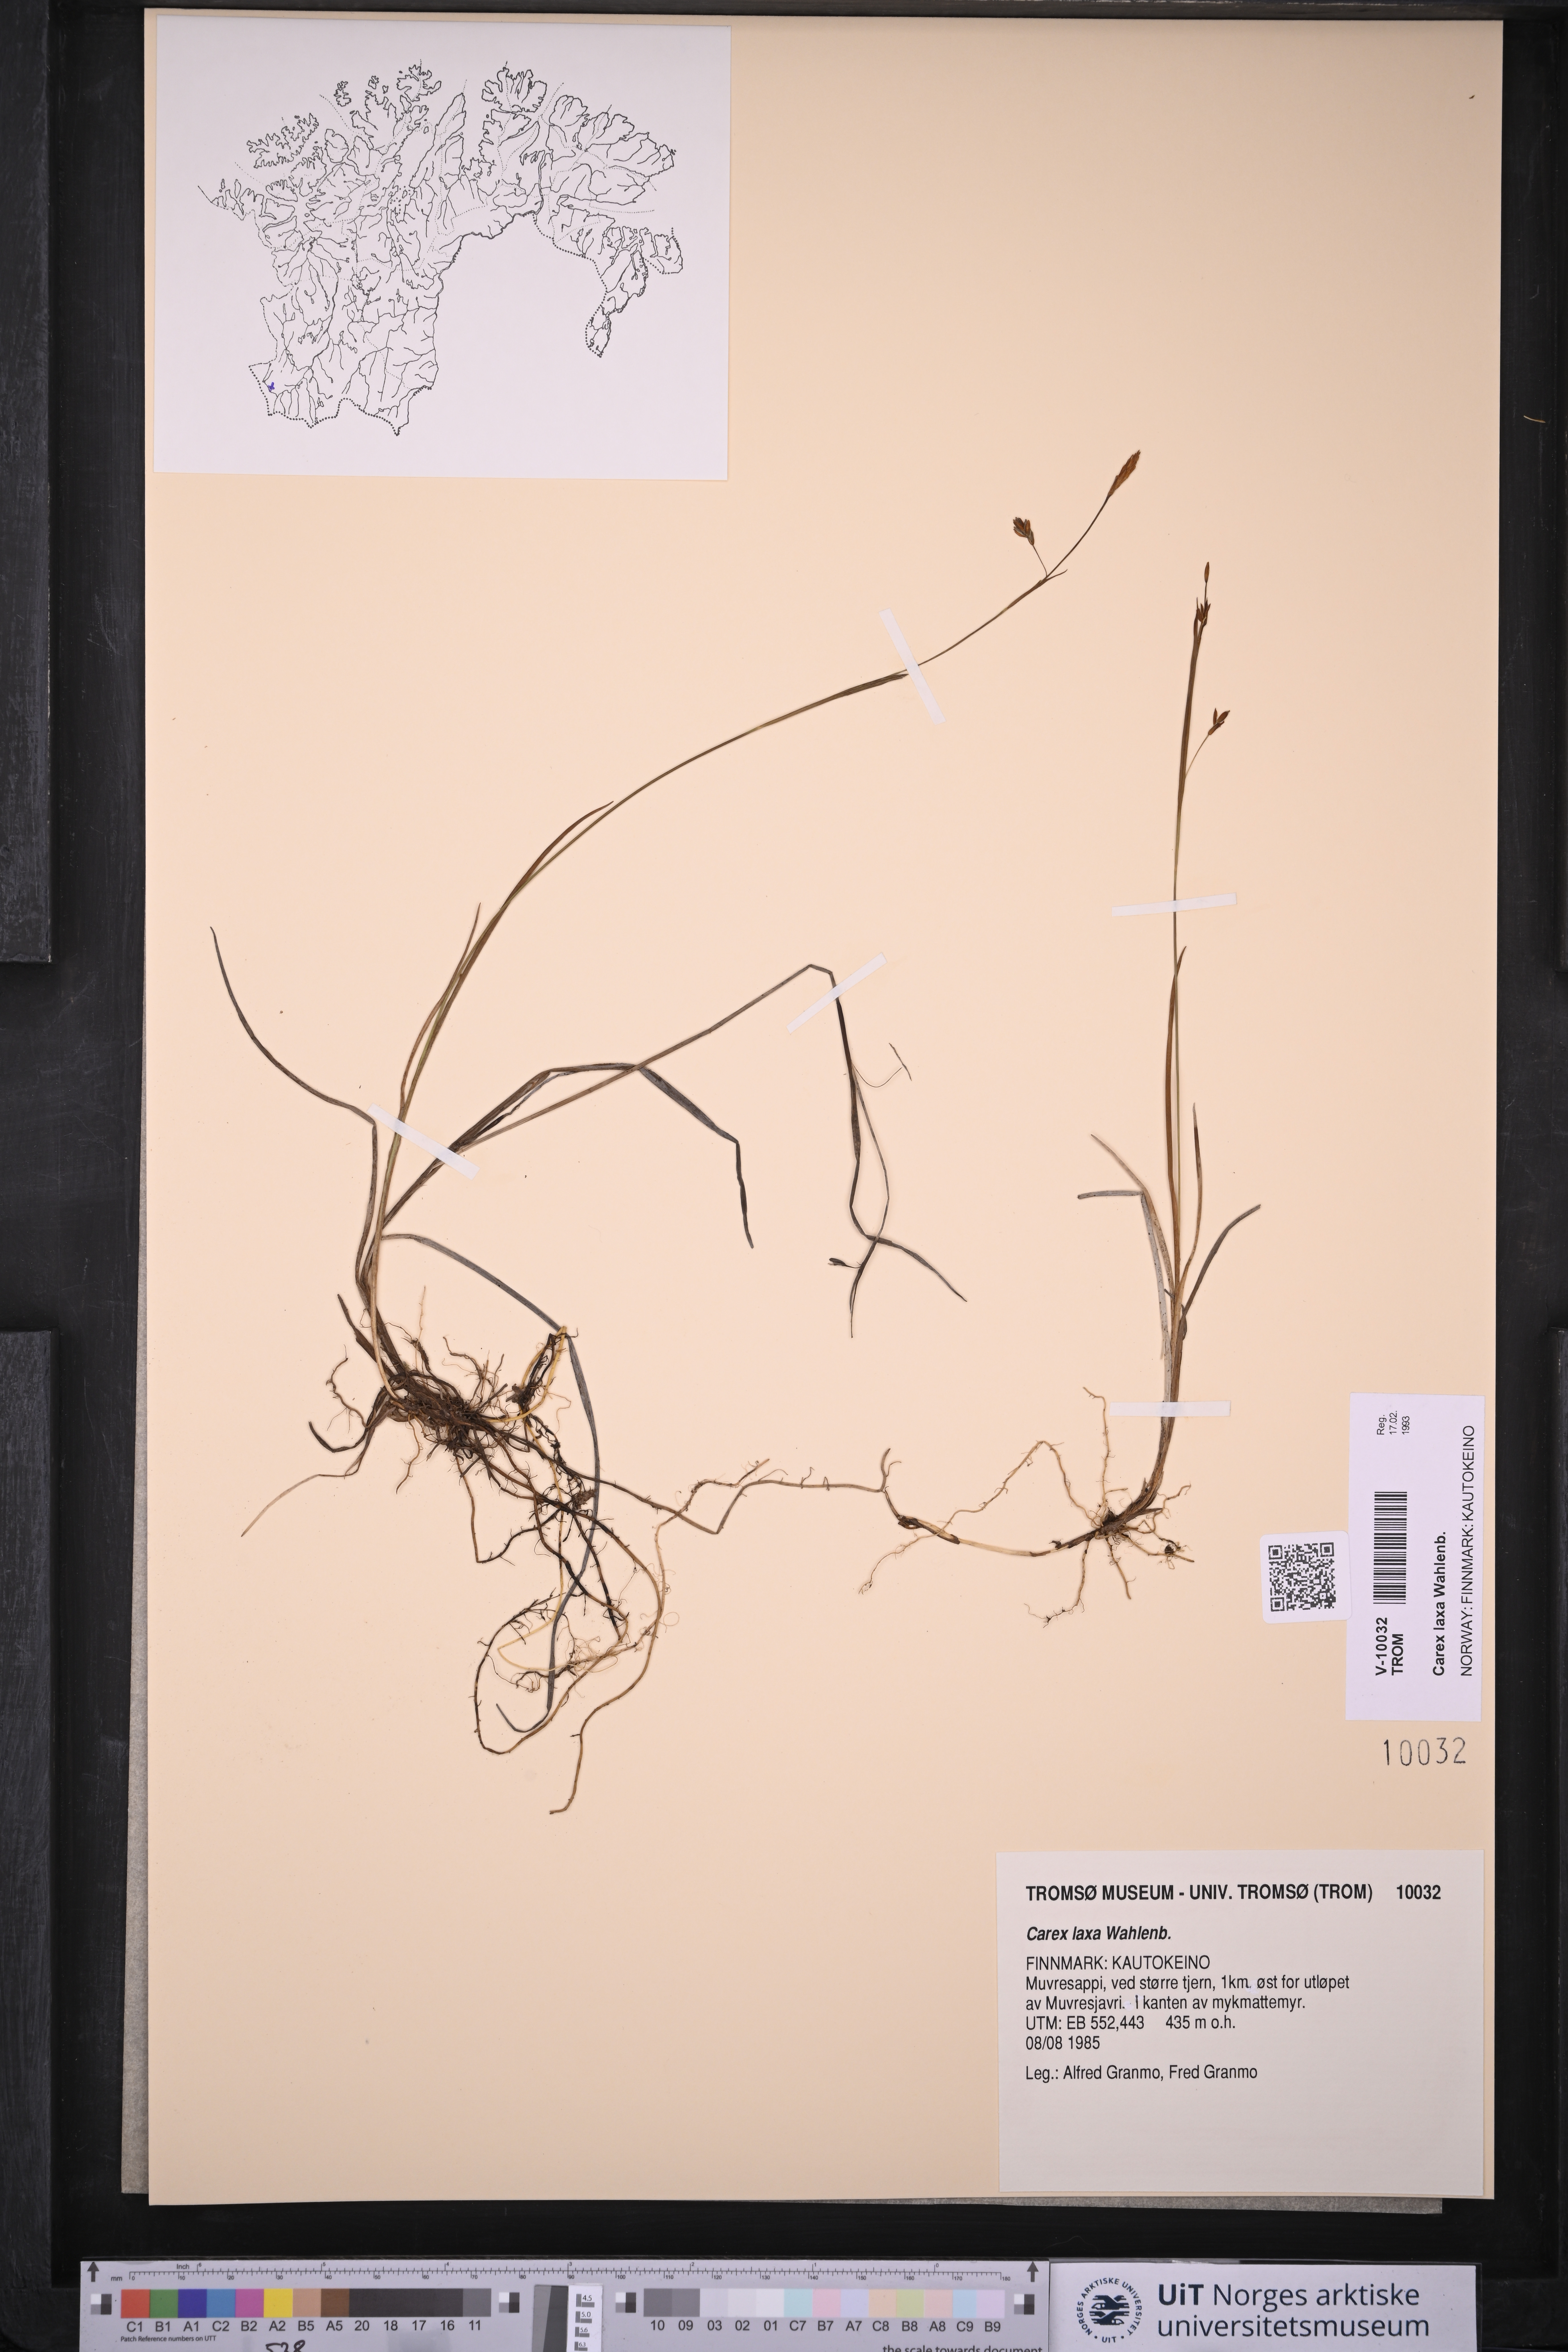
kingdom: Plantae
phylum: Tracheophyta
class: Liliopsida
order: Poales
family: Cyperaceae
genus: Carex
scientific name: Carex laxa
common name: Weak sedge
